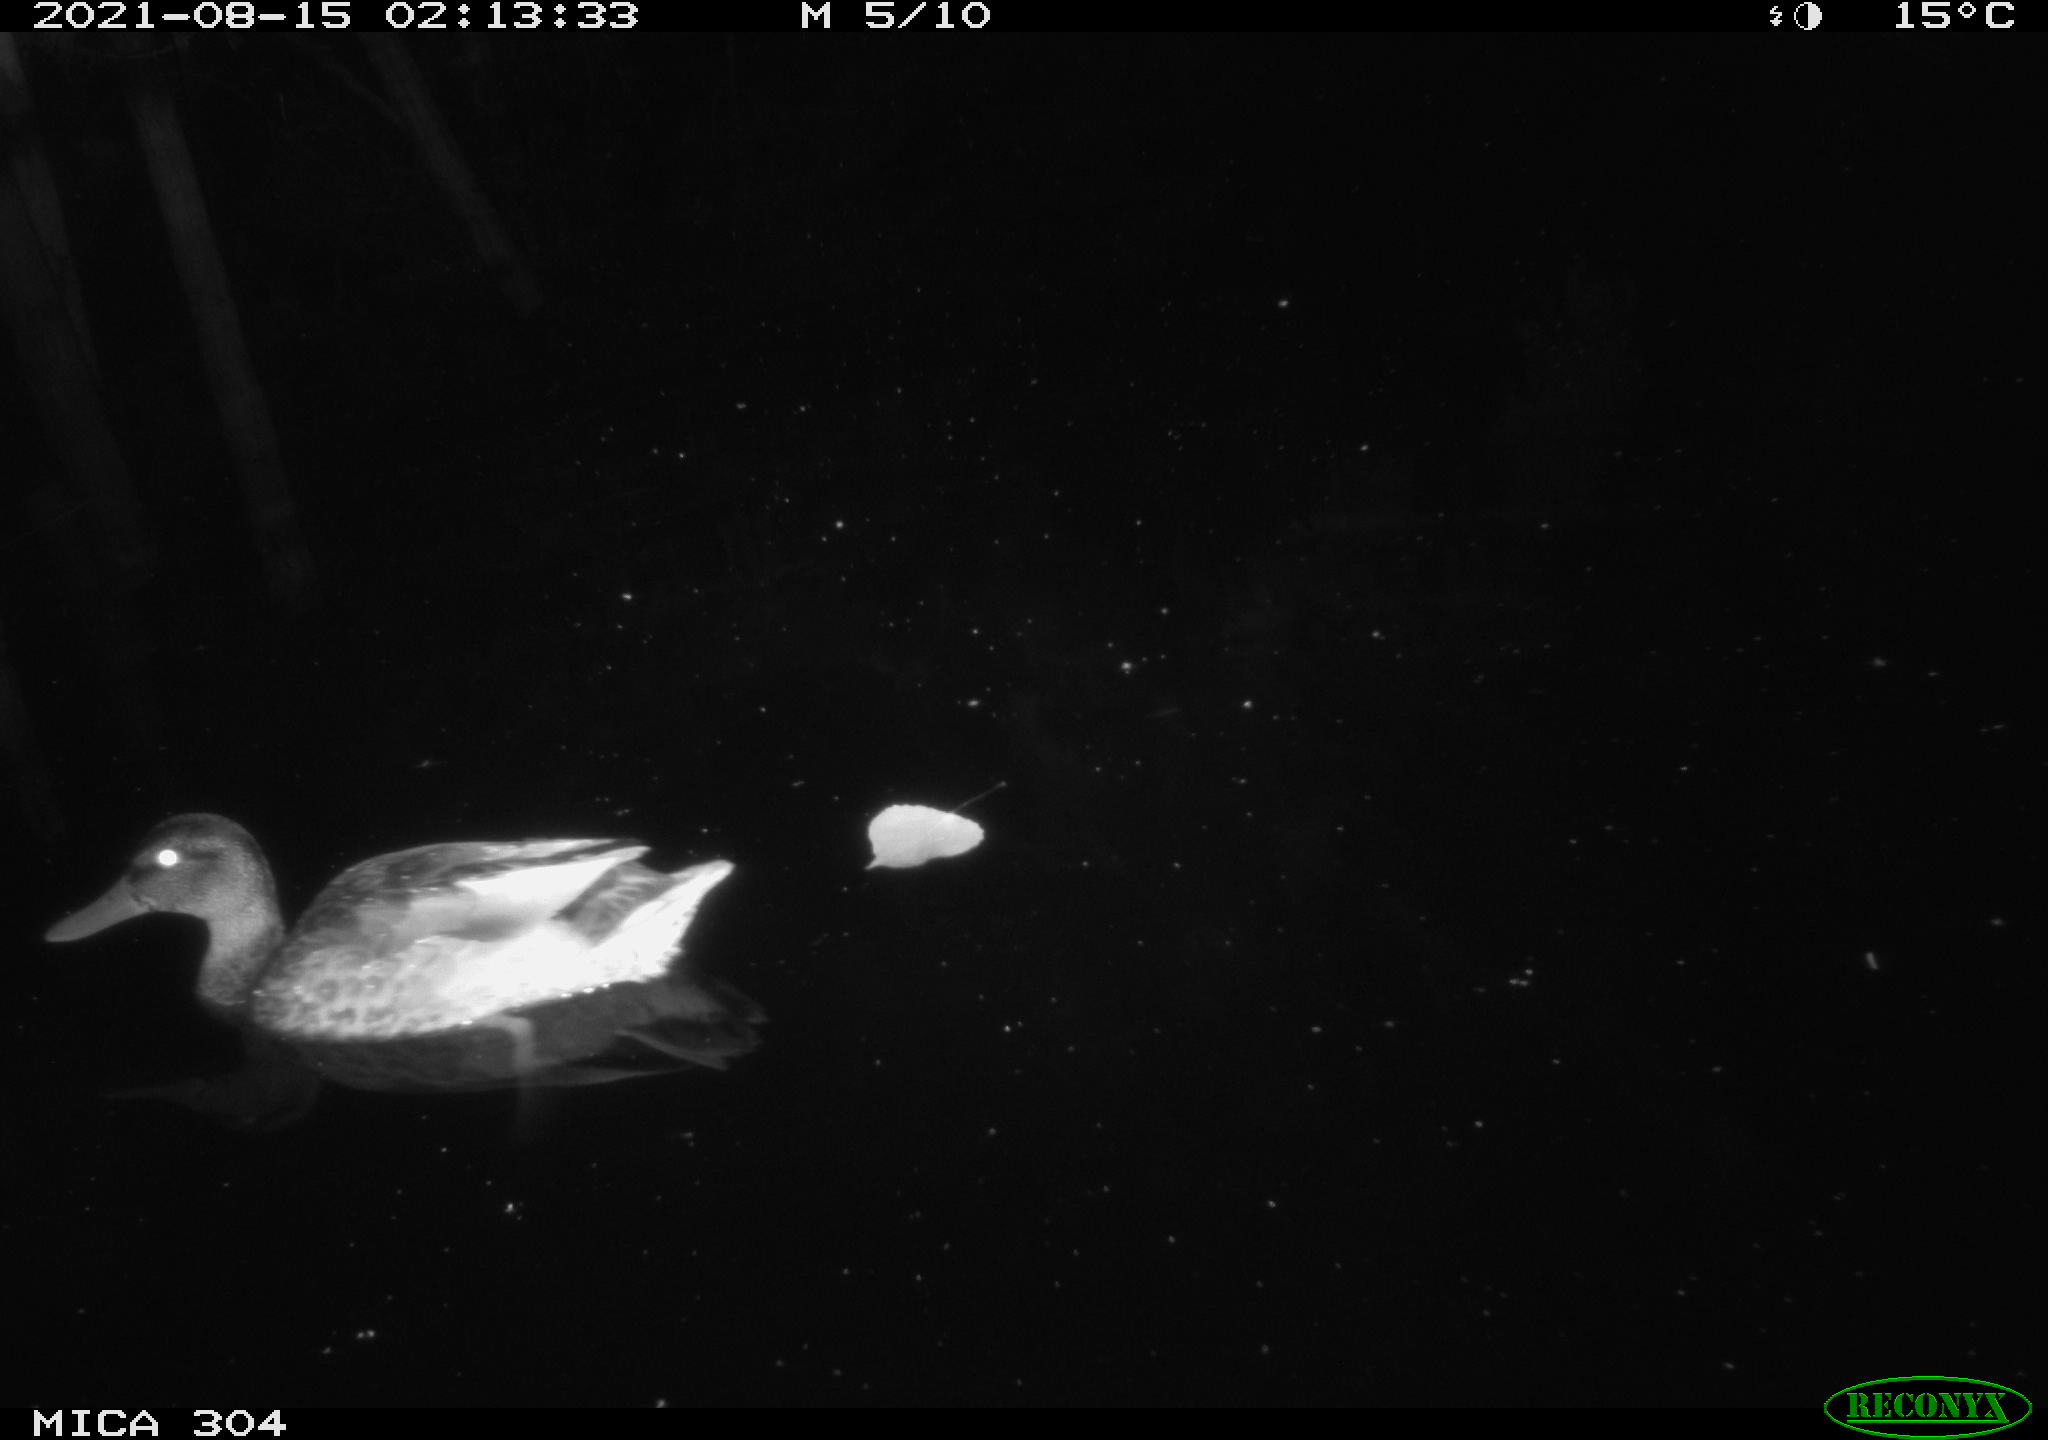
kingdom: Animalia
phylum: Chordata
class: Aves
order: Anseriformes
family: Anatidae
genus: Mareca
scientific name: Mareca strepera
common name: Gadwall
